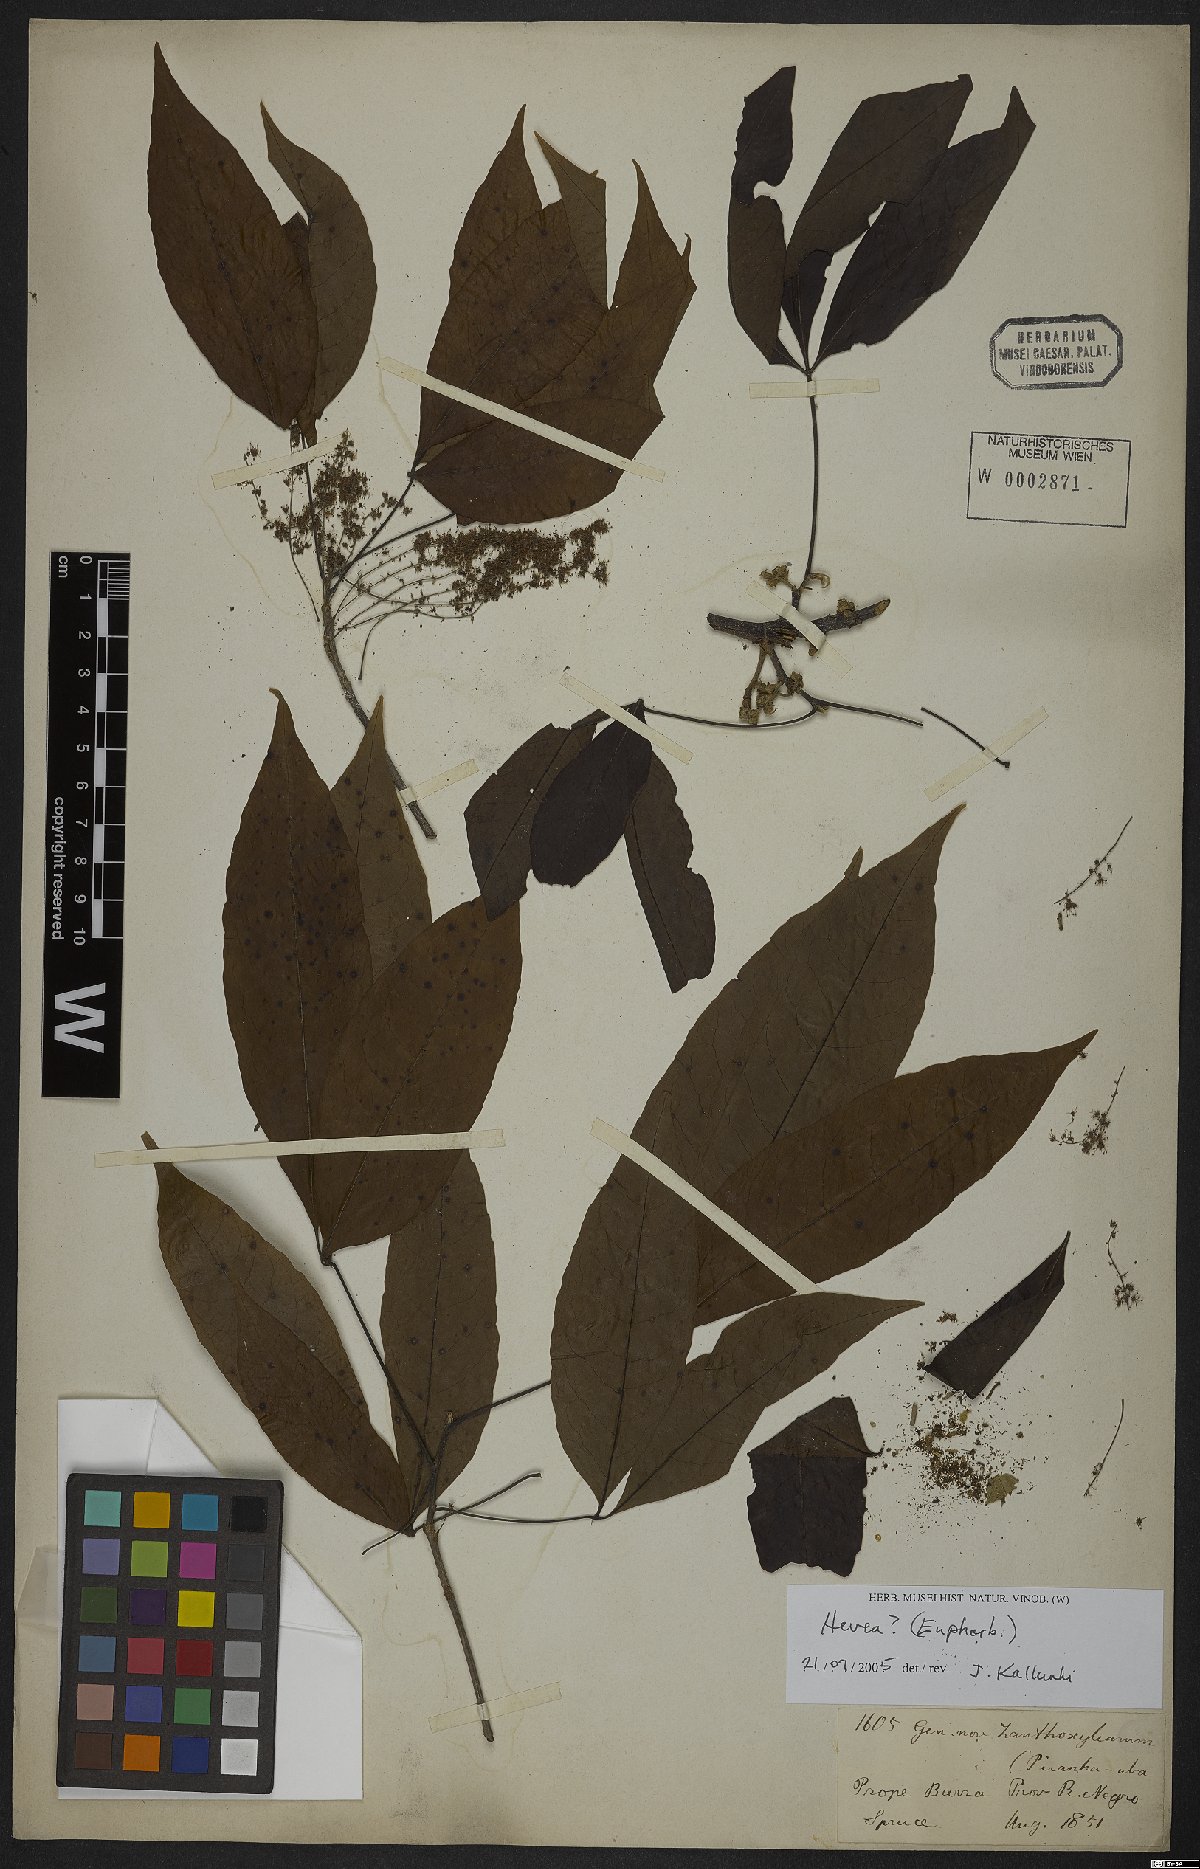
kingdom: Plantae
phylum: Tracheophyta
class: Magnoliopsida
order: Malpighiales
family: Euphorbiaceae
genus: Hevea
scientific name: Hevea
